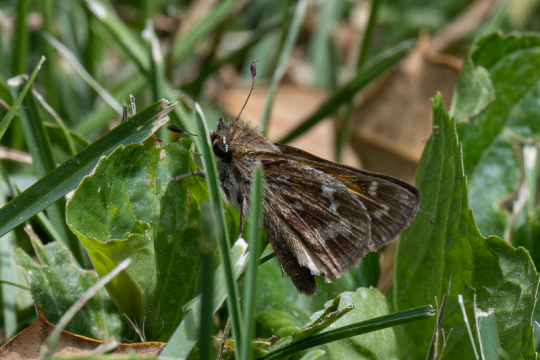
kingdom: Animalia
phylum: Arthropoda
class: Insecta
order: Lepidoptera
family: Hesperiidae
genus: Hesperia
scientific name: Hesperia metea
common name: Cobweb Skipper
